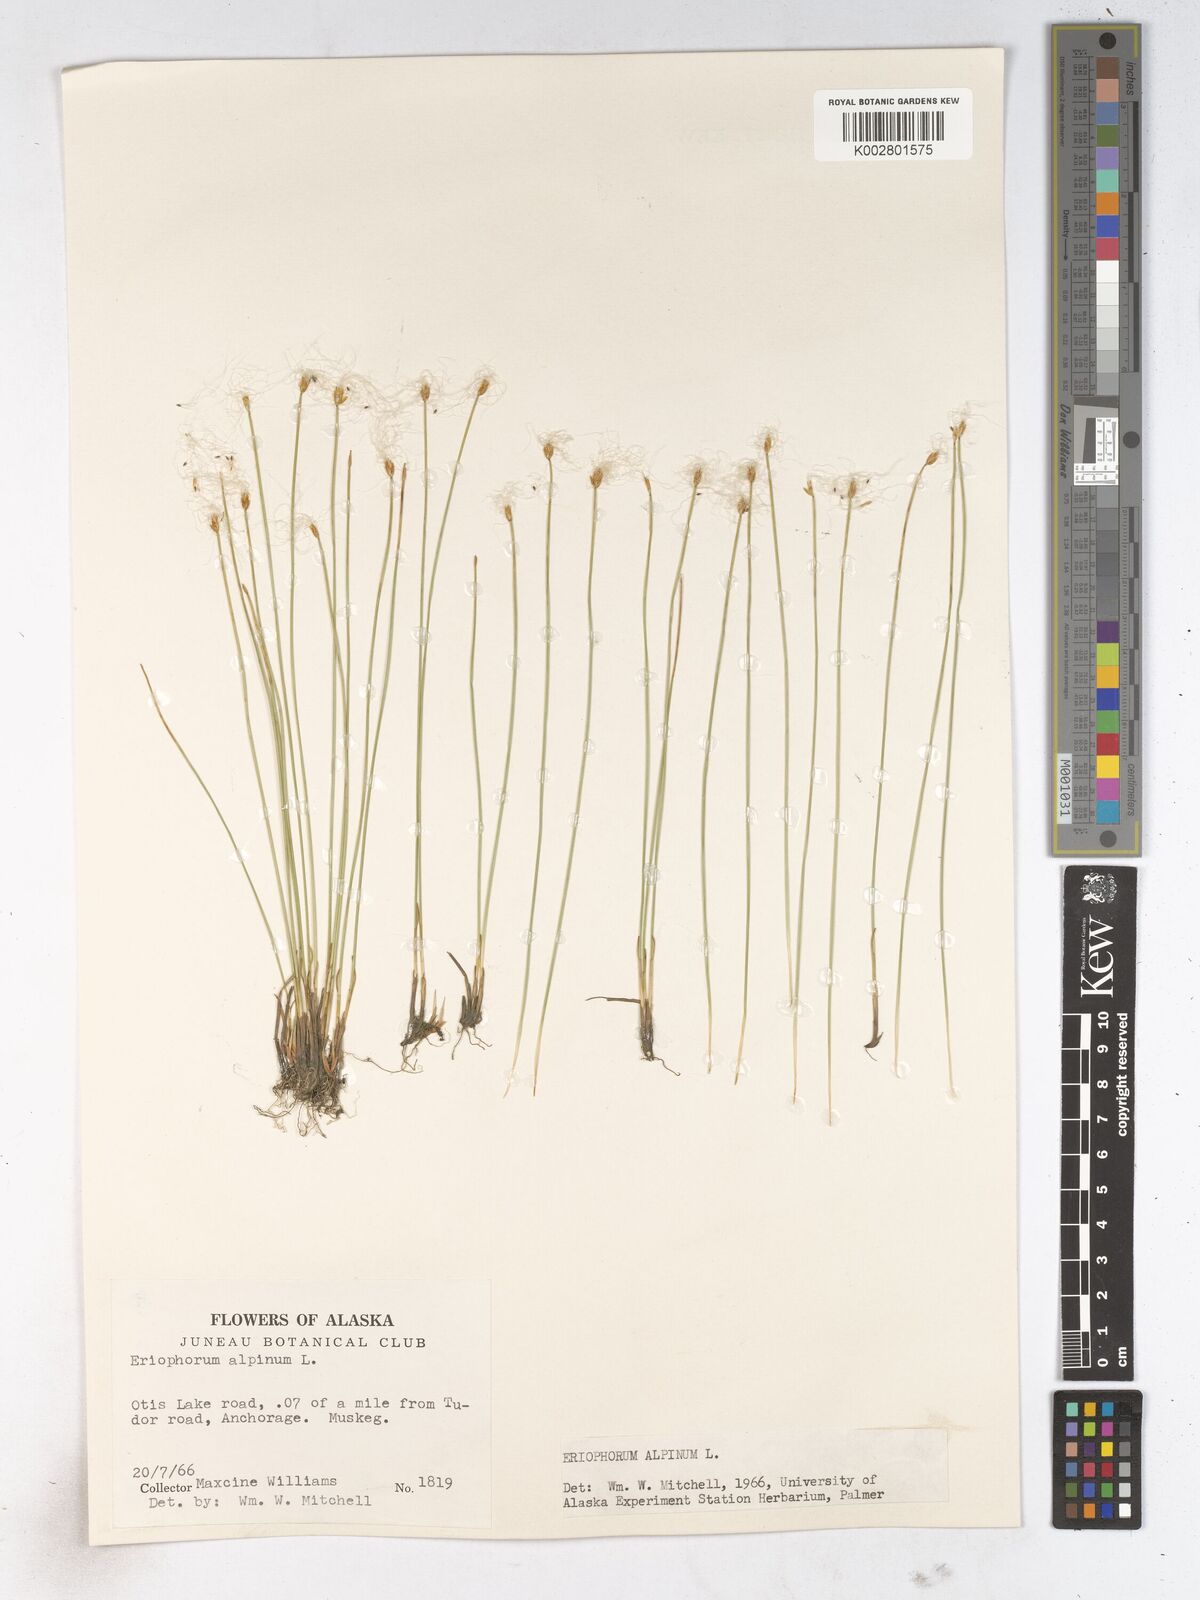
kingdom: Plantae
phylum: Tracheophyta
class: Liliopsida
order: Poales
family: Cyperaceae
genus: Trichophorum
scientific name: Trichophorum alpinum
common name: Alpine bulrush
